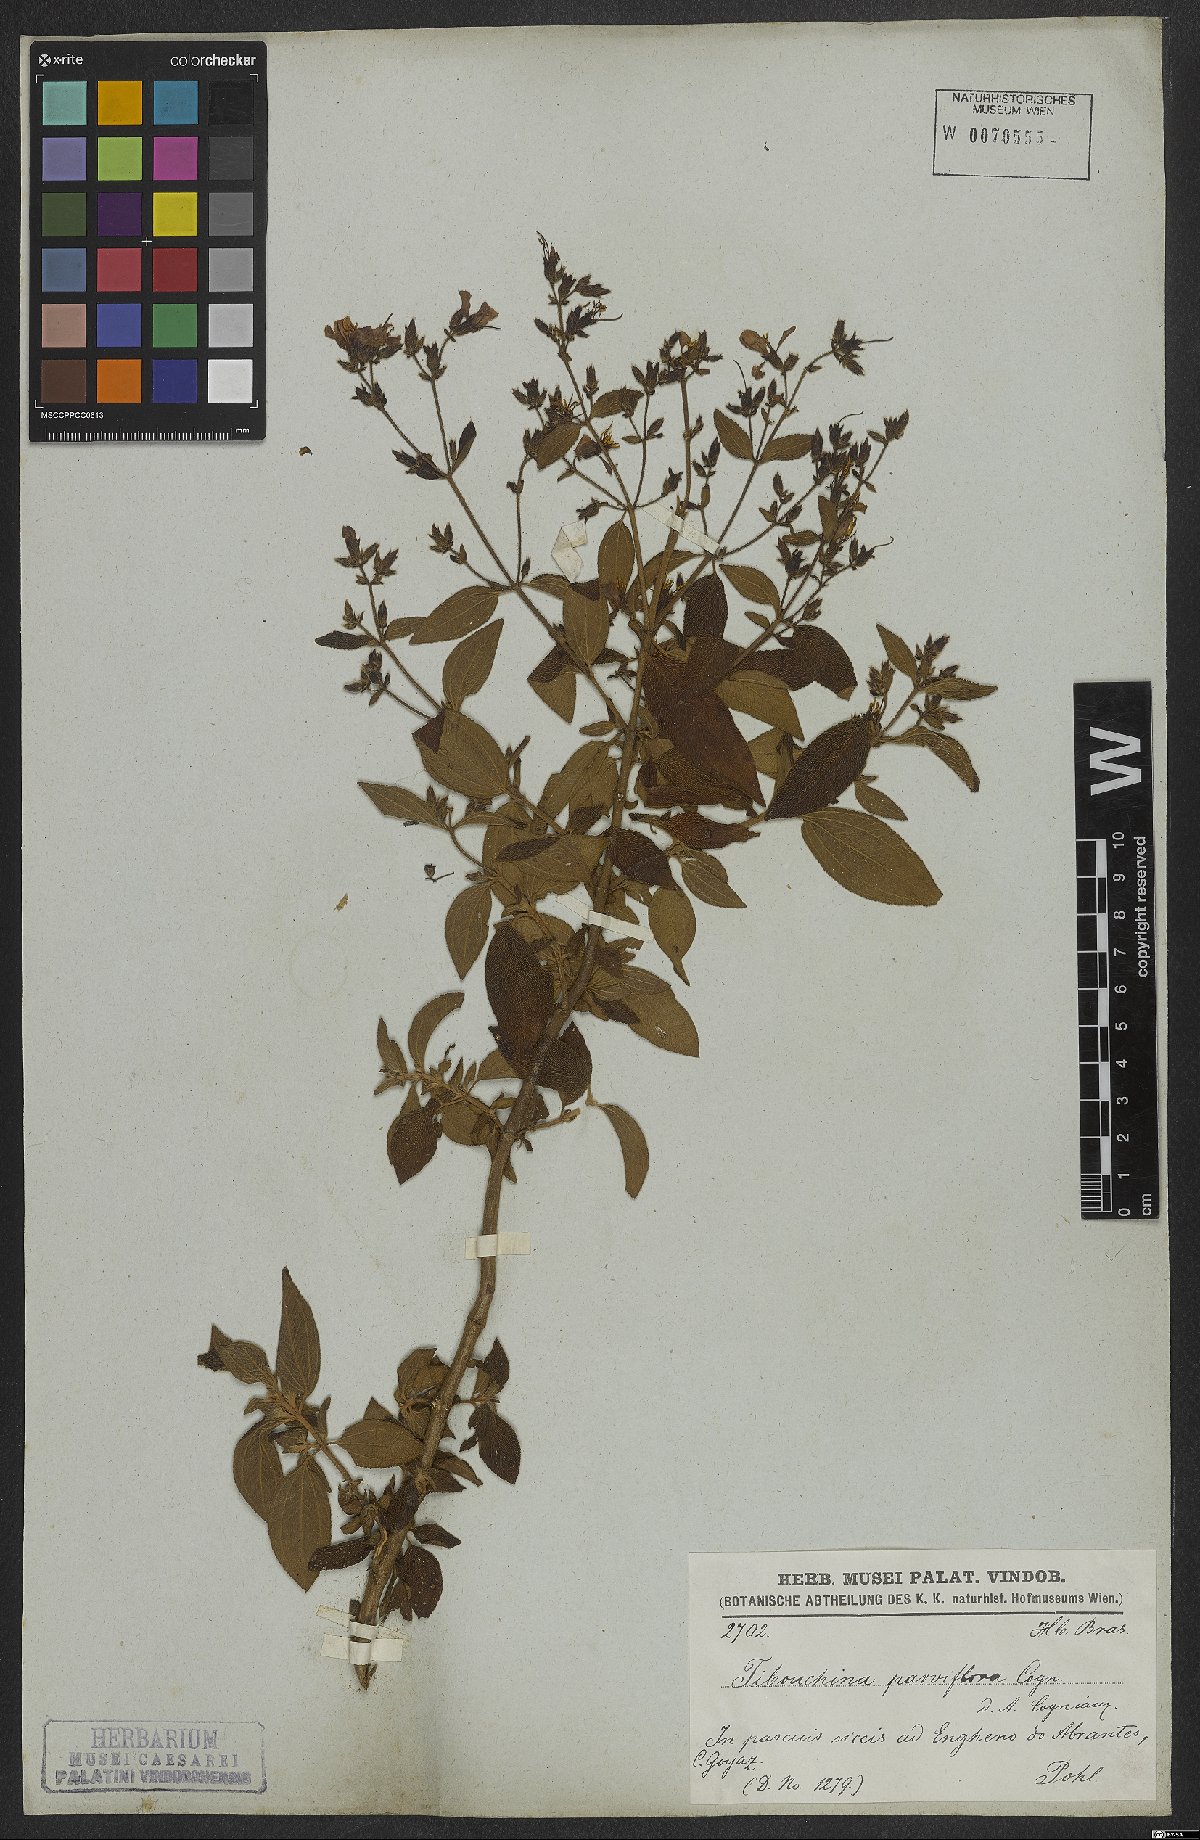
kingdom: Plantae
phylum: Tracheophyta
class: Magnoliopsida
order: Myrtales
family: Melastomataceae
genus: Chaetogastra
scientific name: Chaetogastra parviflora
